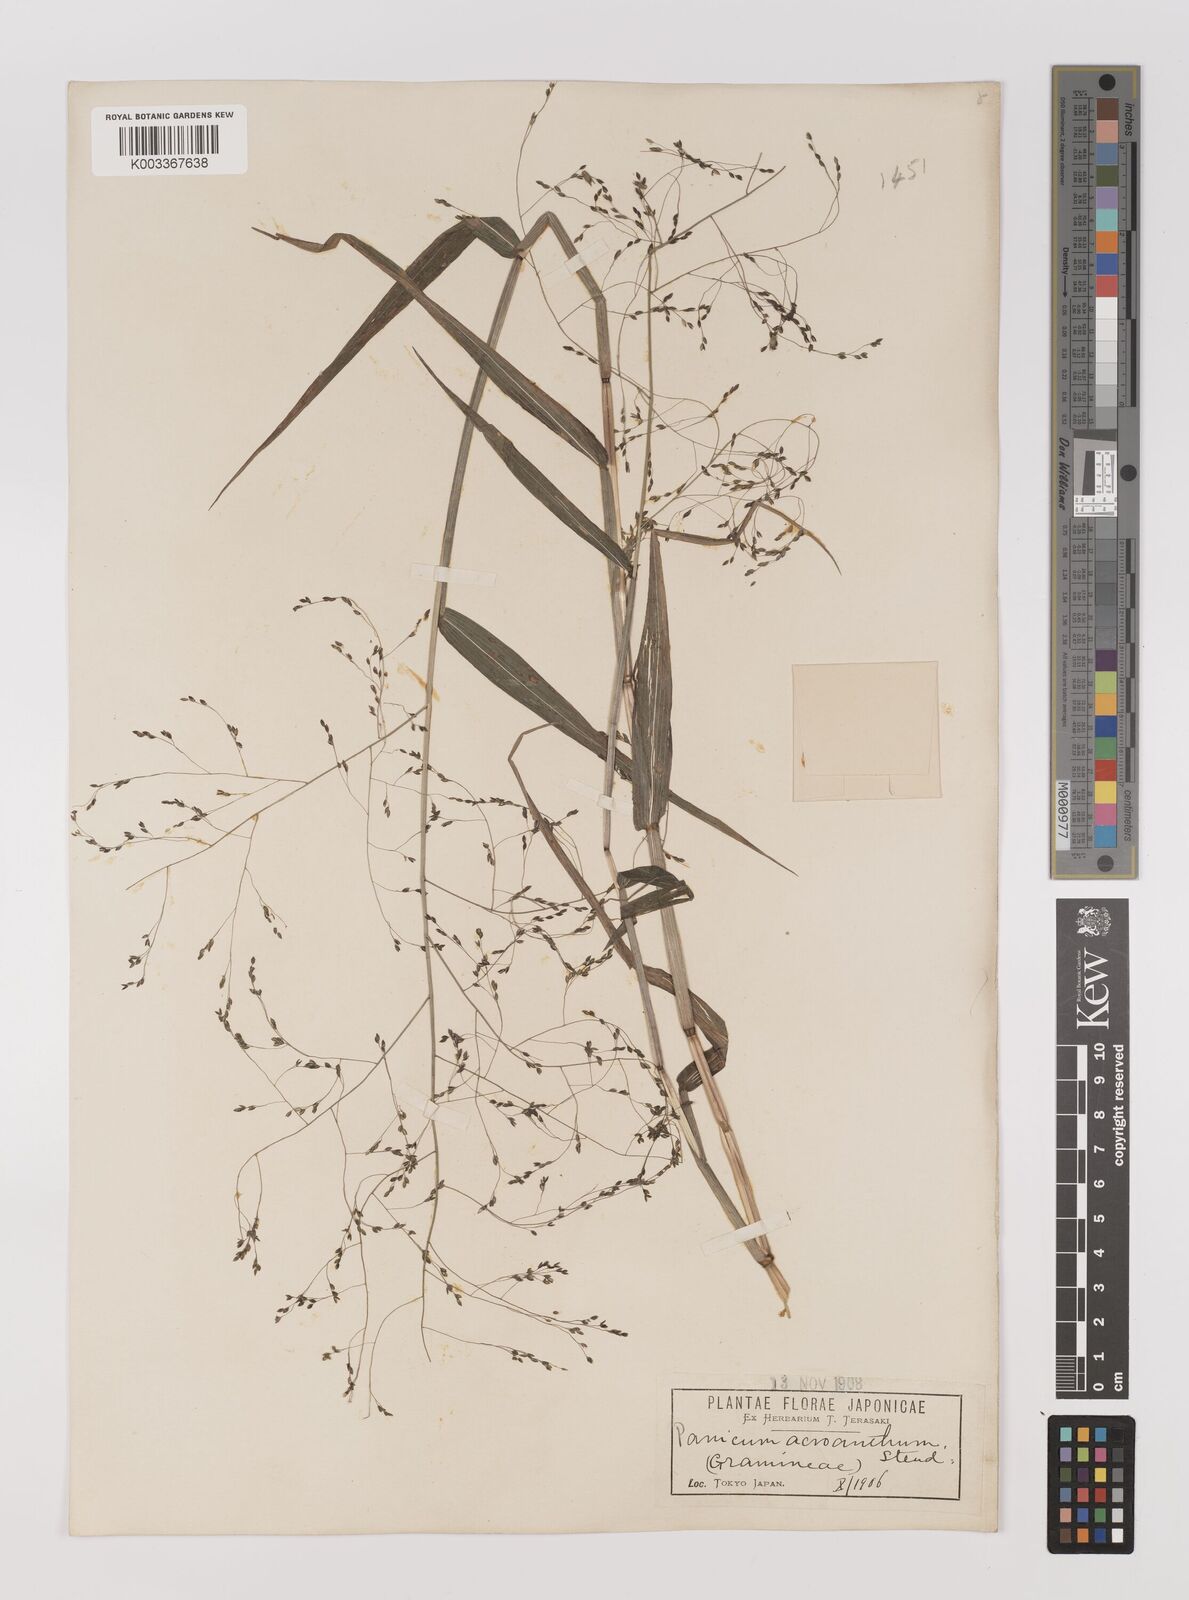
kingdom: Plantae
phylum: Tracheophyta
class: Liliopsida
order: Poales
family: Poaceae
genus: Panicum
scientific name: Panicum bisulcatum
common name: Japanese panicgrass
